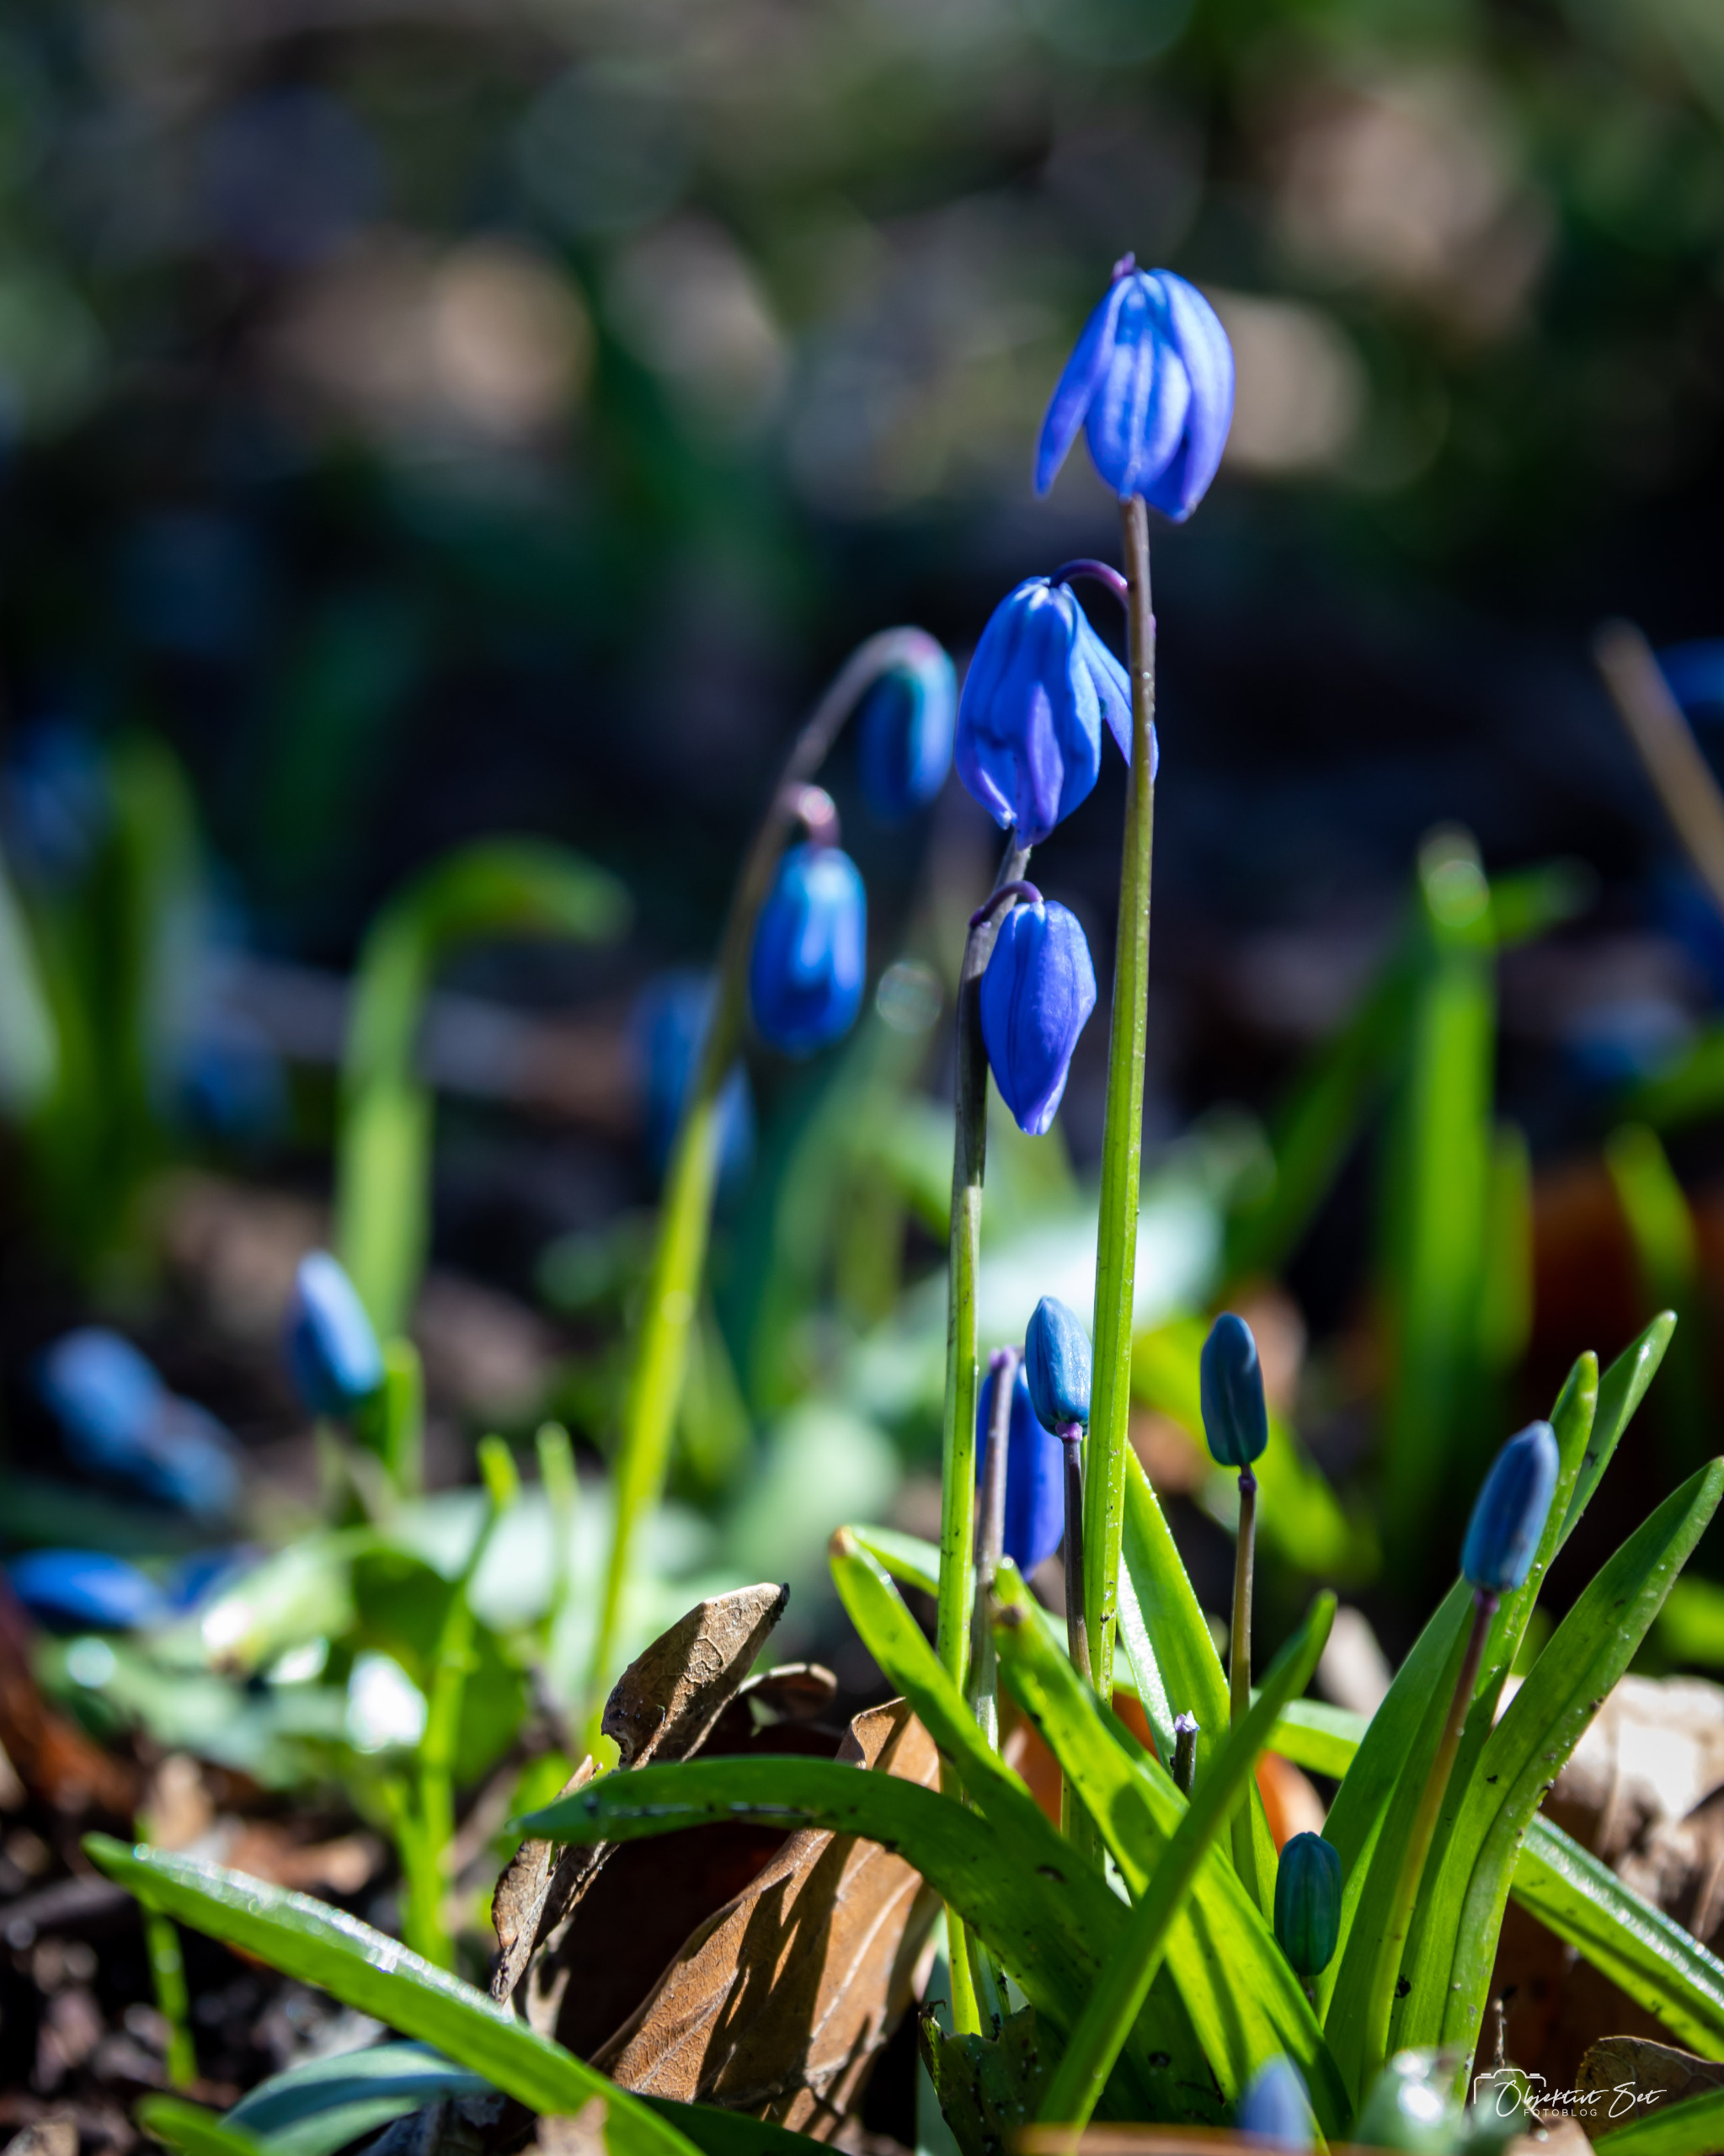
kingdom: Plantae
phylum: Tracheophyta
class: Liliopsida
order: Asparagales
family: Asparagaceae
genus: Scilla
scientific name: Scilla siberica
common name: Russisk skilla
